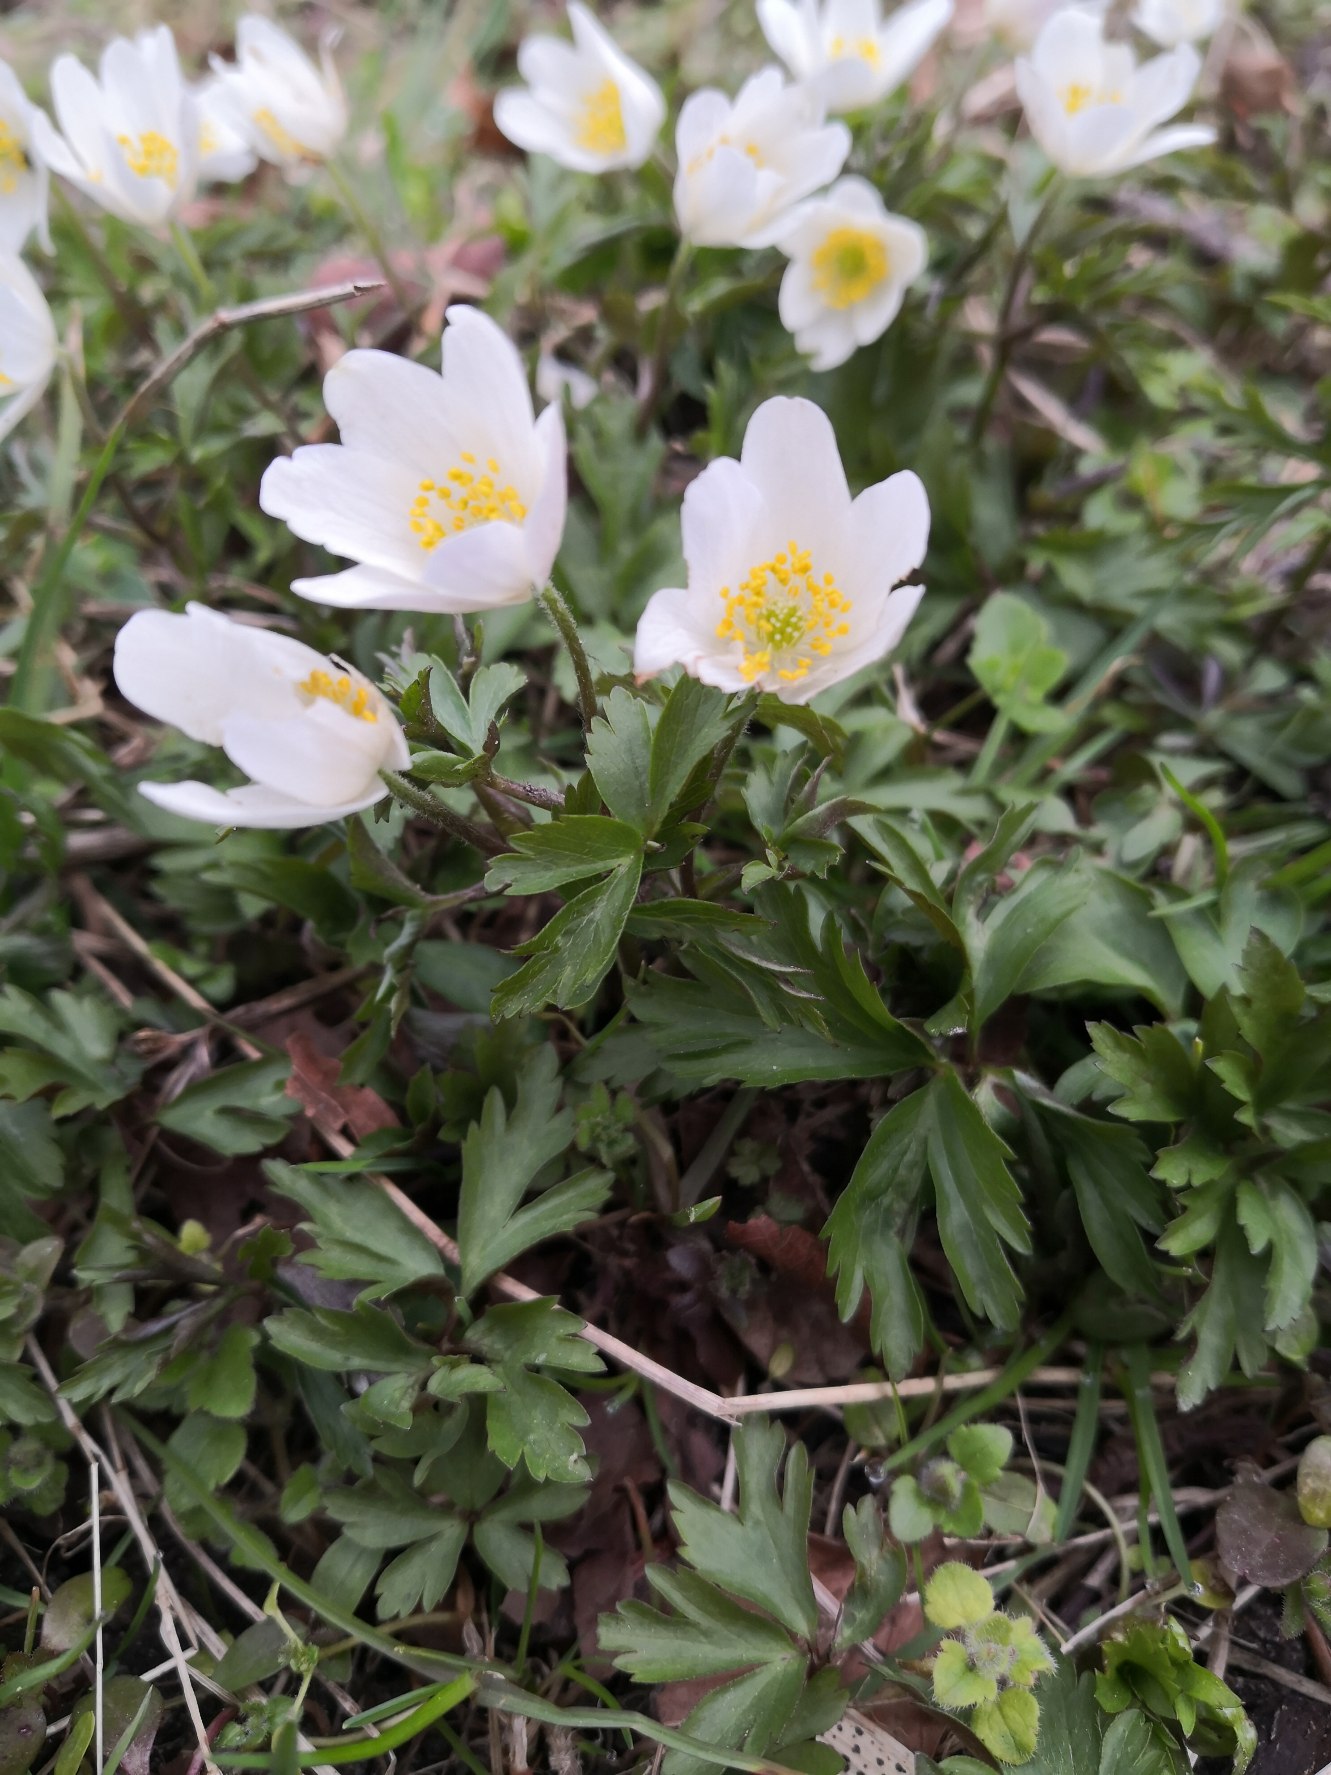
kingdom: Plantae
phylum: Tracheophyta
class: Magnoliopsida
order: Ranunculales
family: Ranunculaceae
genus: Anemone
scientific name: Anemone nemorosa
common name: Hvid anemone
